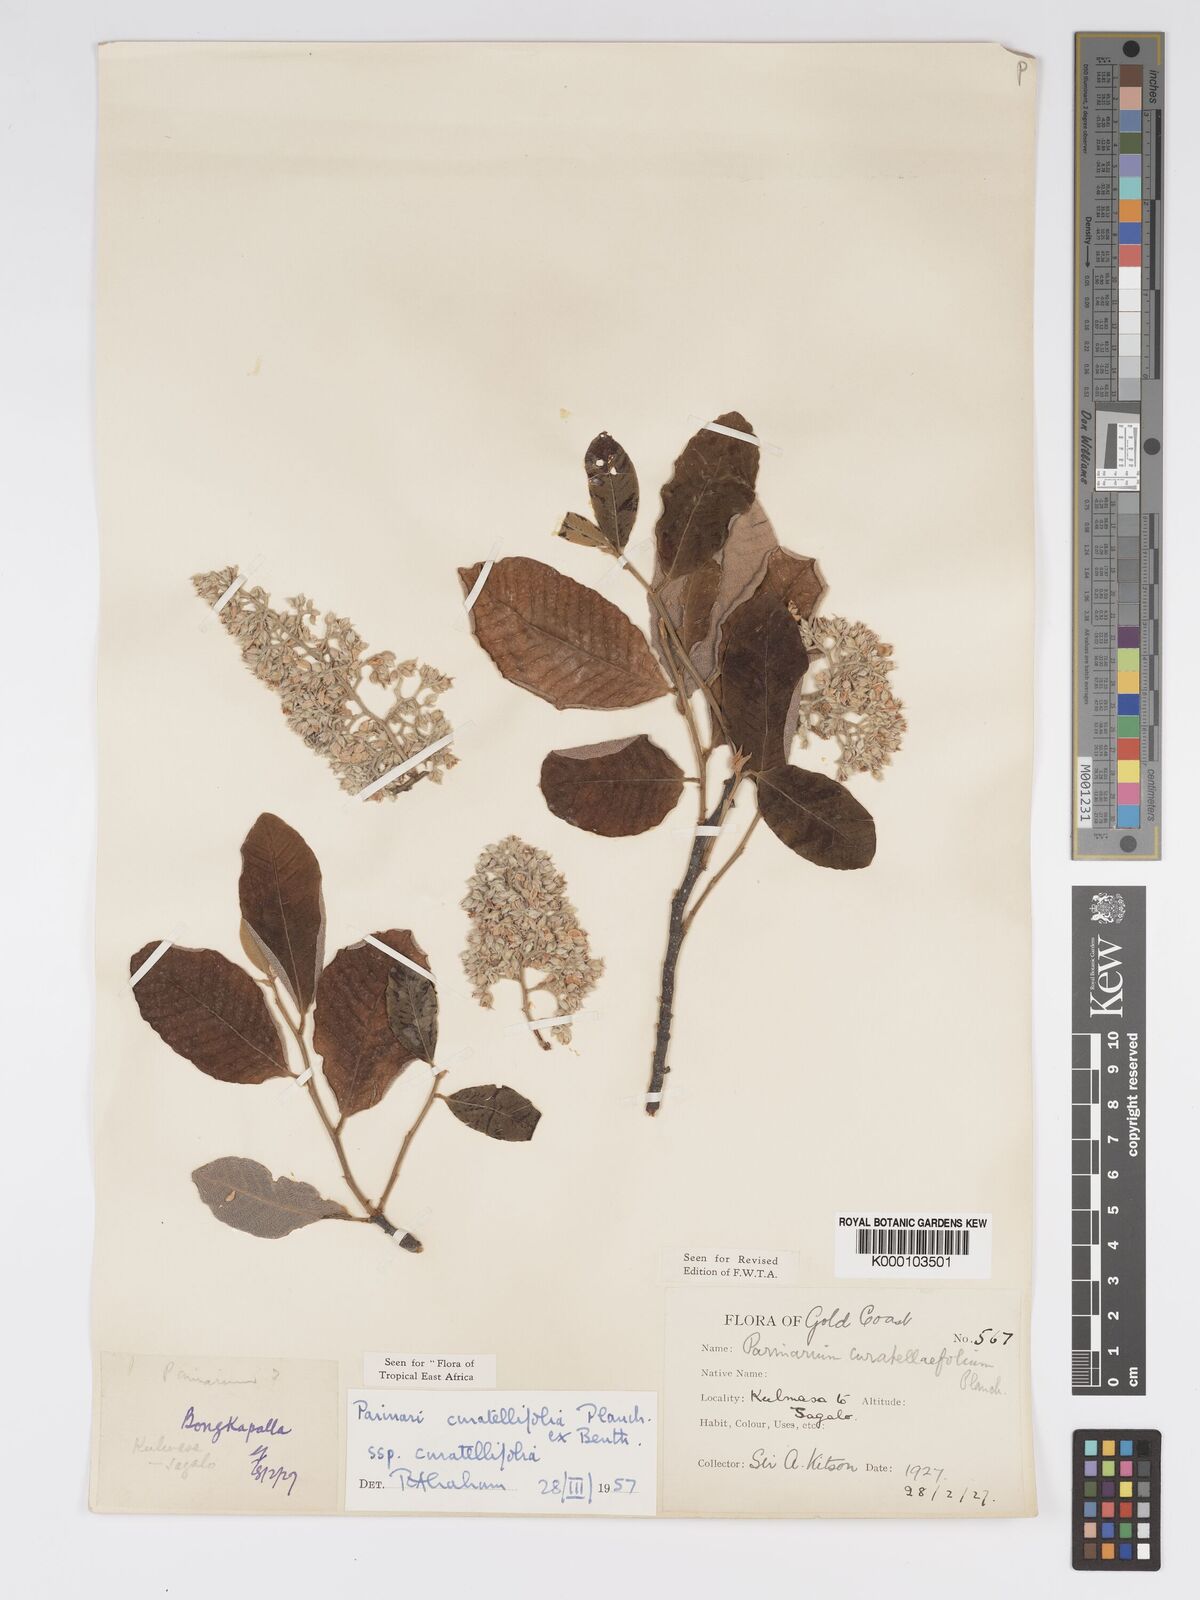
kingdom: Plantae
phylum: Tracheophyta
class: Magnoliopsida
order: Malpighiales
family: Chrysobalanaceae
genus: Parinari
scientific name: Parinari curatellifolia
